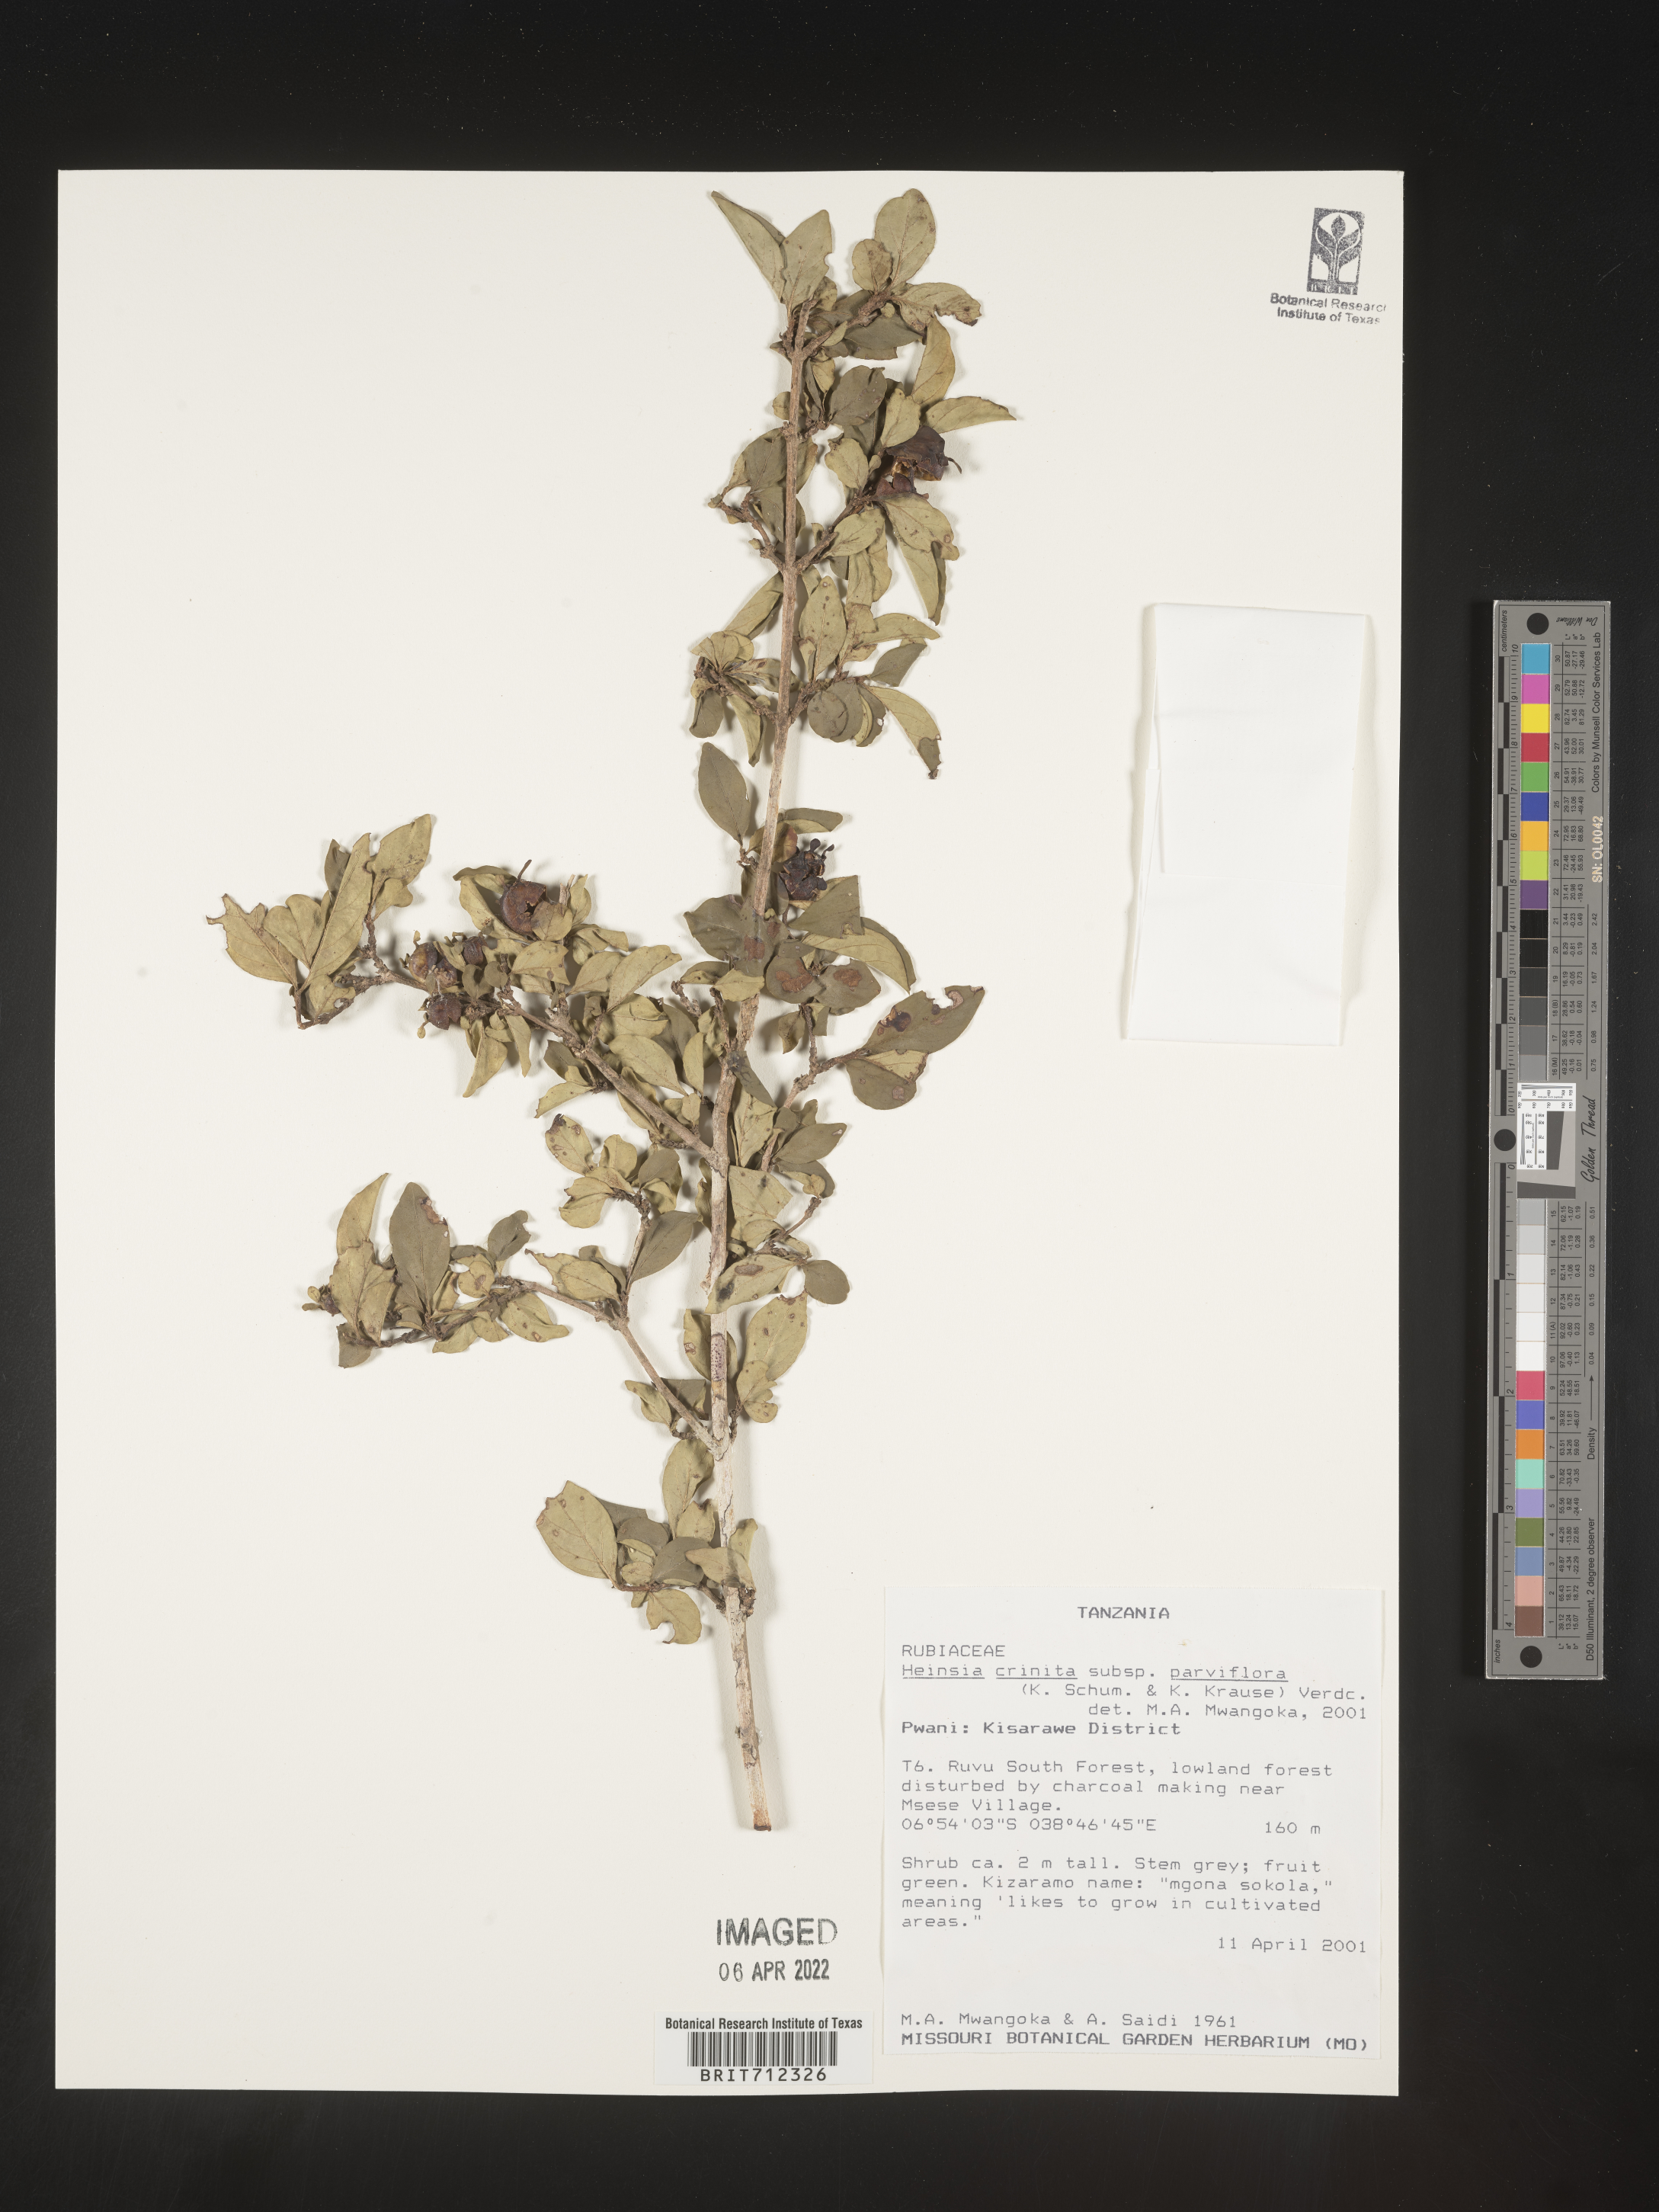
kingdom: Plantae
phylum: Tracheophyta
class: Magnoliopsida
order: Gentianales
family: Rubiaceae
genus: Heinsia
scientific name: Heinsia
